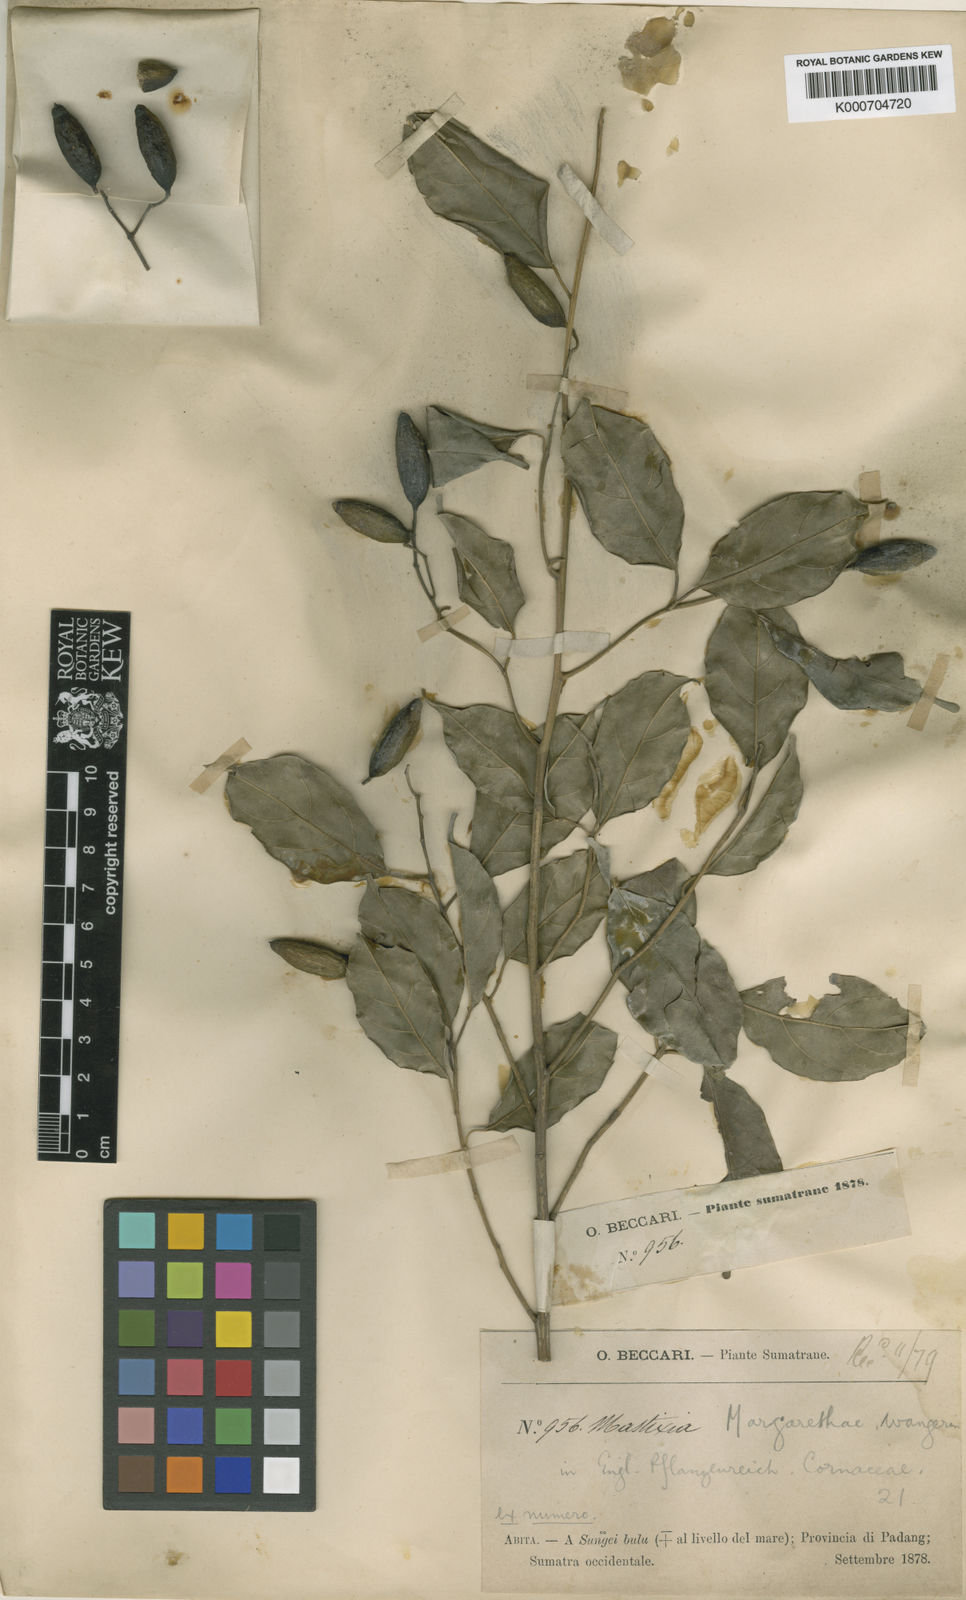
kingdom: Plantae
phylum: Tracheophyta
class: Magnoliopsida
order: Cornales
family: Nyssaceae
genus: Mastixia
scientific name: Mastixia rostrata
